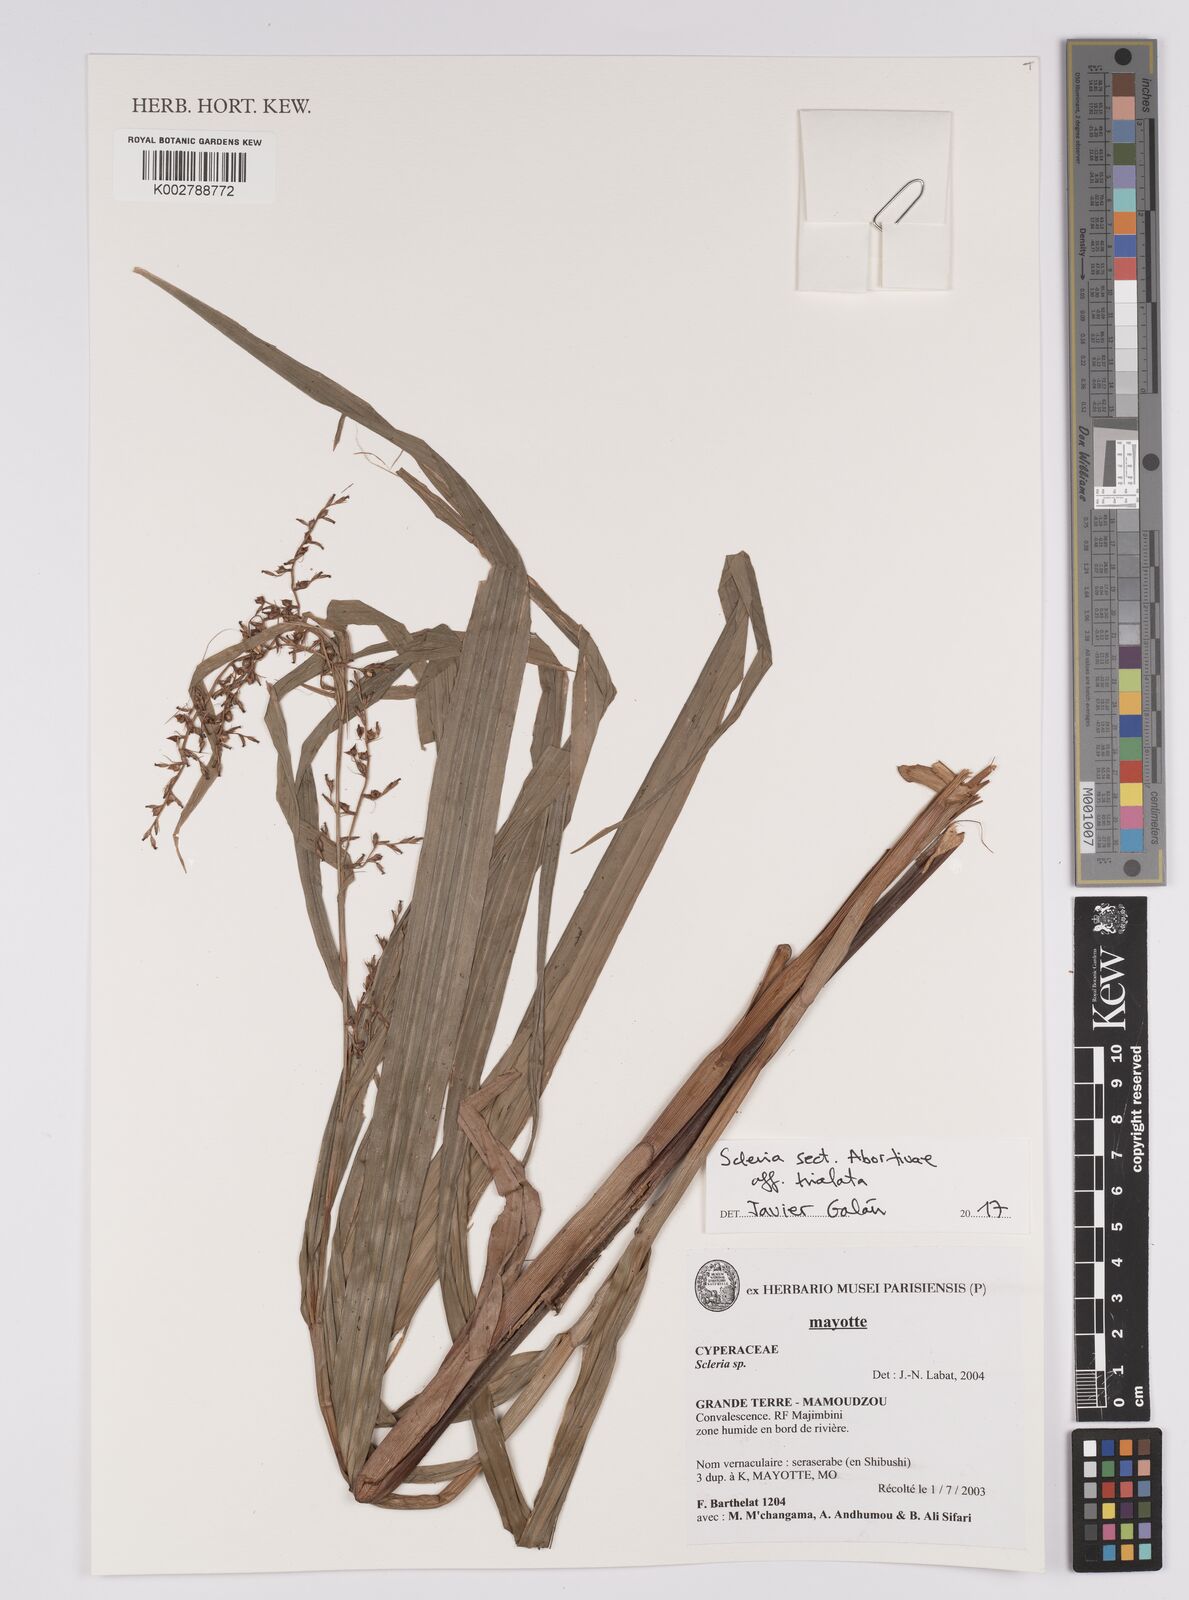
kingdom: Plantae
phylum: Tracheophyta
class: Liliopsida
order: Poales
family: Cyperaceae
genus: Scleria
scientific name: Scleria trialata
